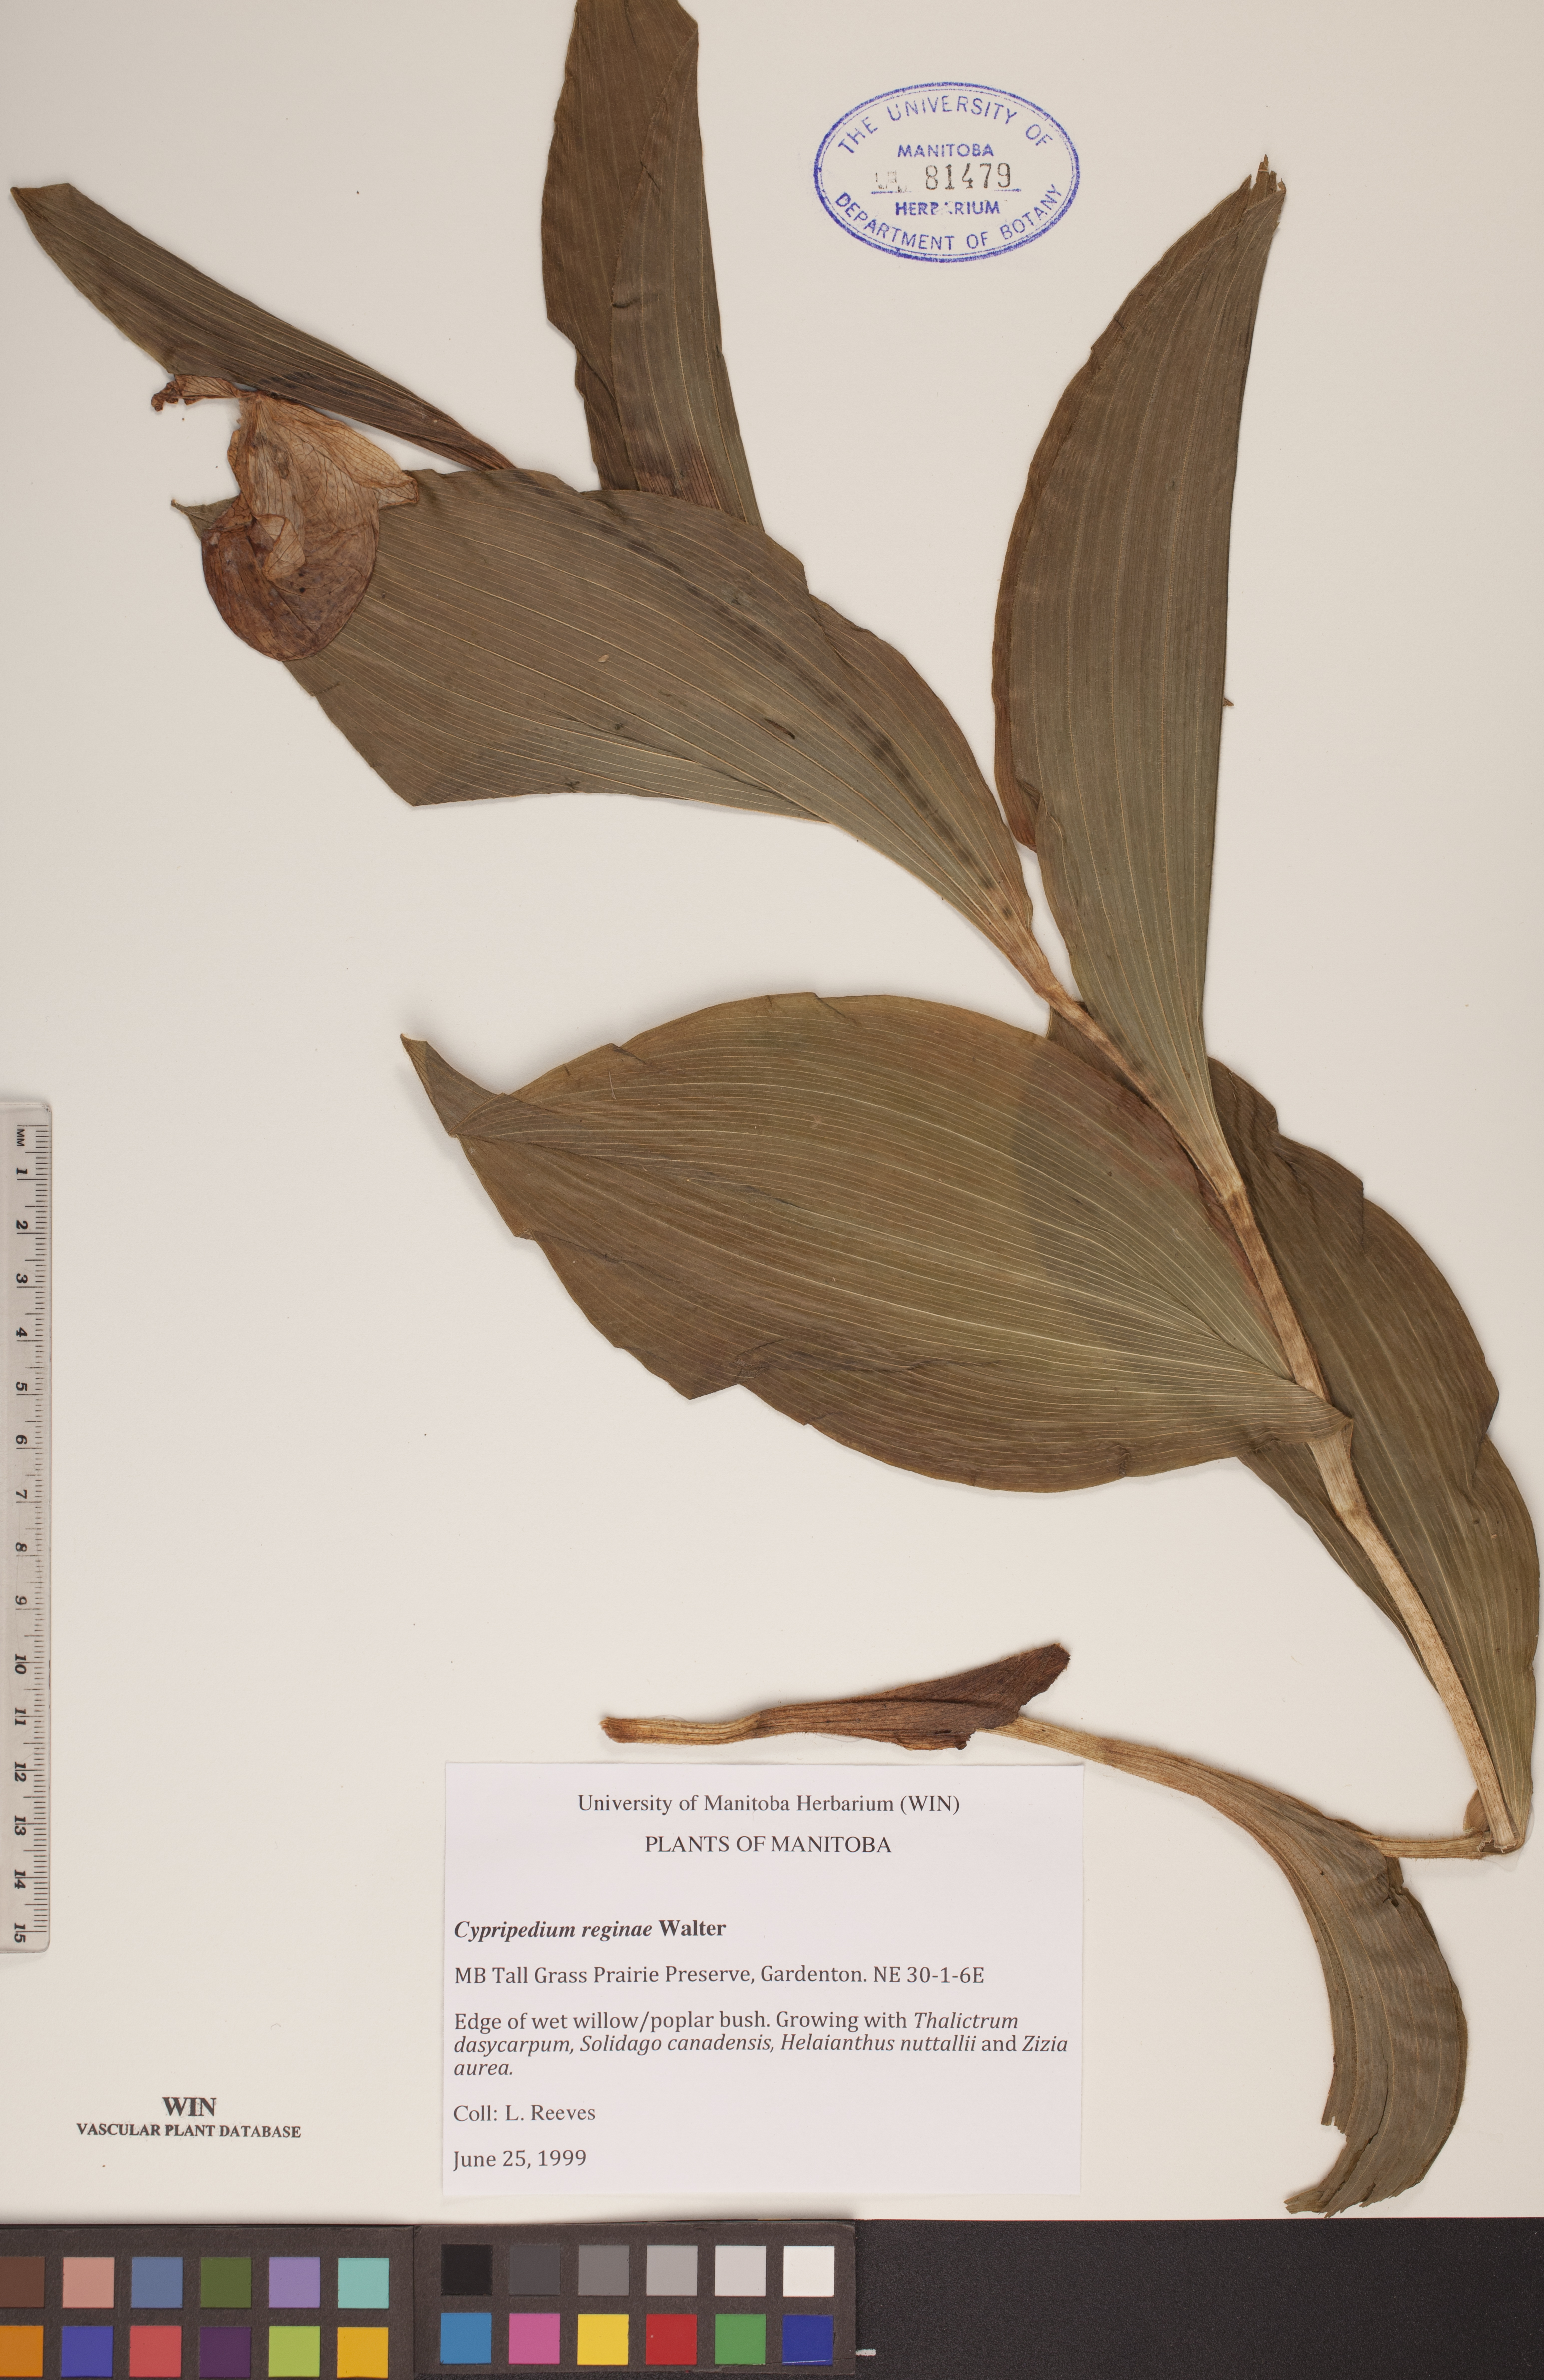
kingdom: Plantae
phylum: Tracheophyta
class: Liliopsida
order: Asparagales
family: Orchidaceae
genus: Cypripedium
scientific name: Cypripedium reginae
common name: Queen lady's-slipper
